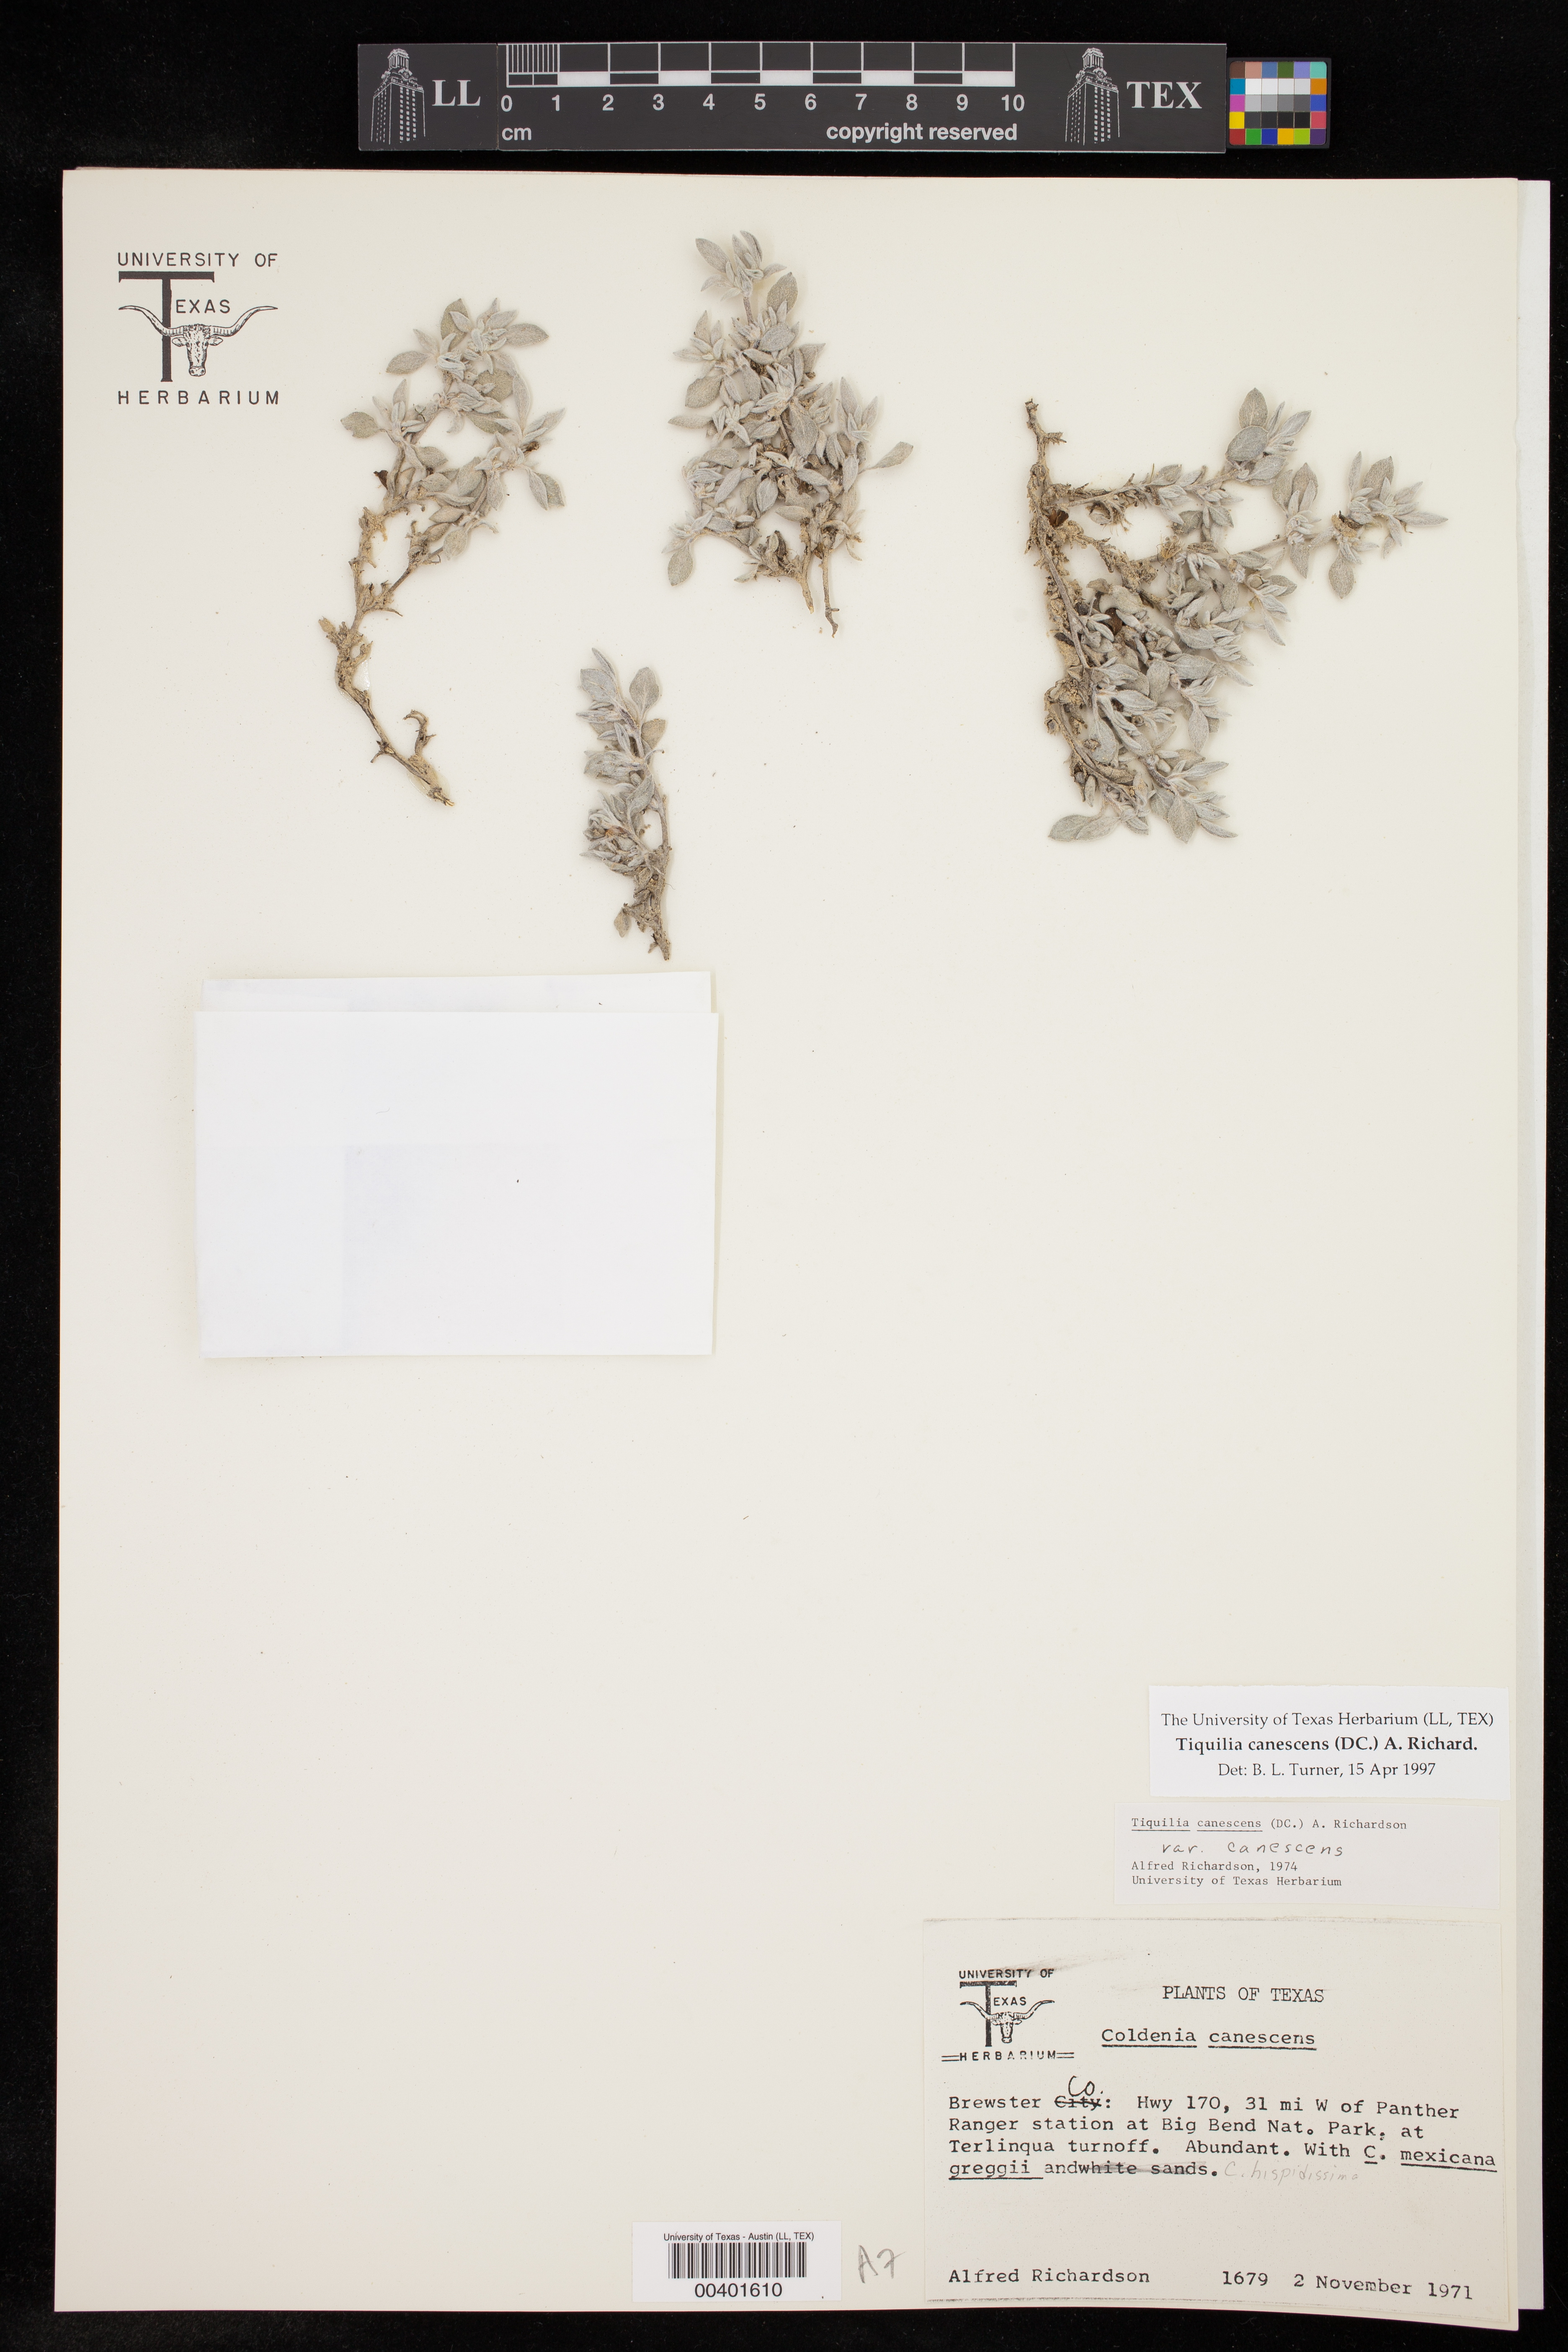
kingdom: Plantae
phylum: Tracheophyta
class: Magnoliopsida
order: Boraginales
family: Ehretiaceae
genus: Tiquilia
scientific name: Tiquilia canescens
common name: Hairy tiquilia
